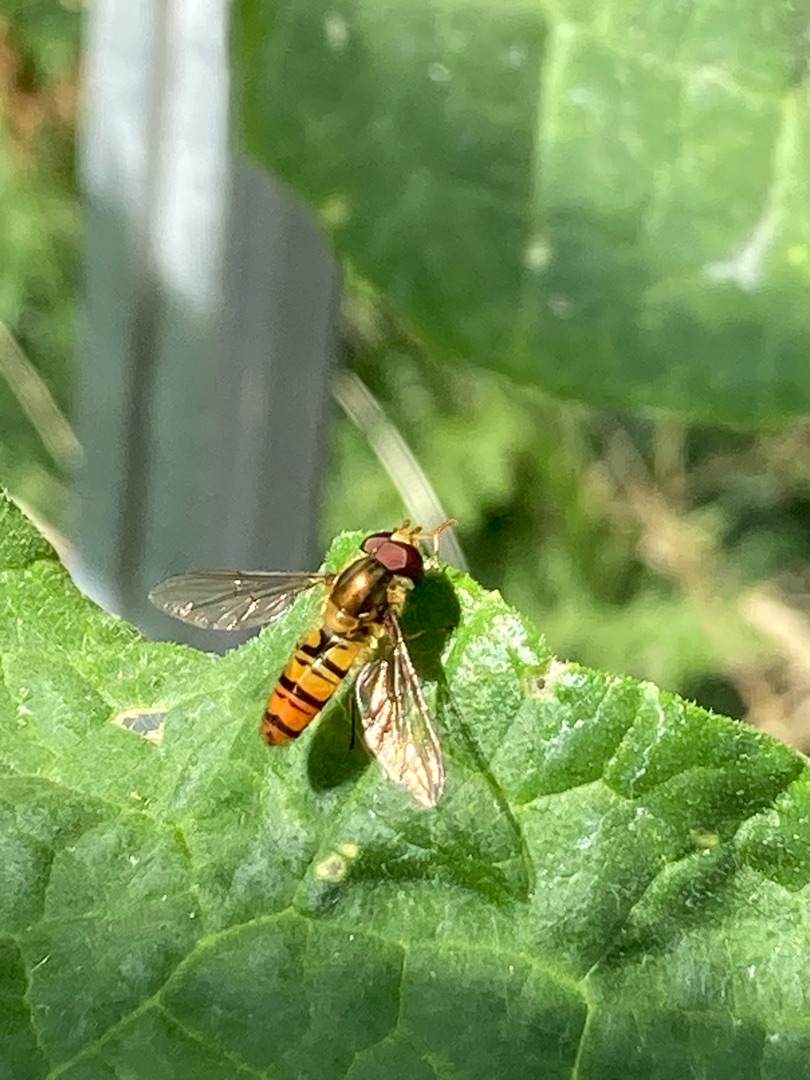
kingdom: Animalia
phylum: Arthropoda
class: Insecta
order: Diptera
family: Syrphidae
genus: Episyrphus
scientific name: Episyrphus balteatus
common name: Dobbeltbåndet svirreflue
